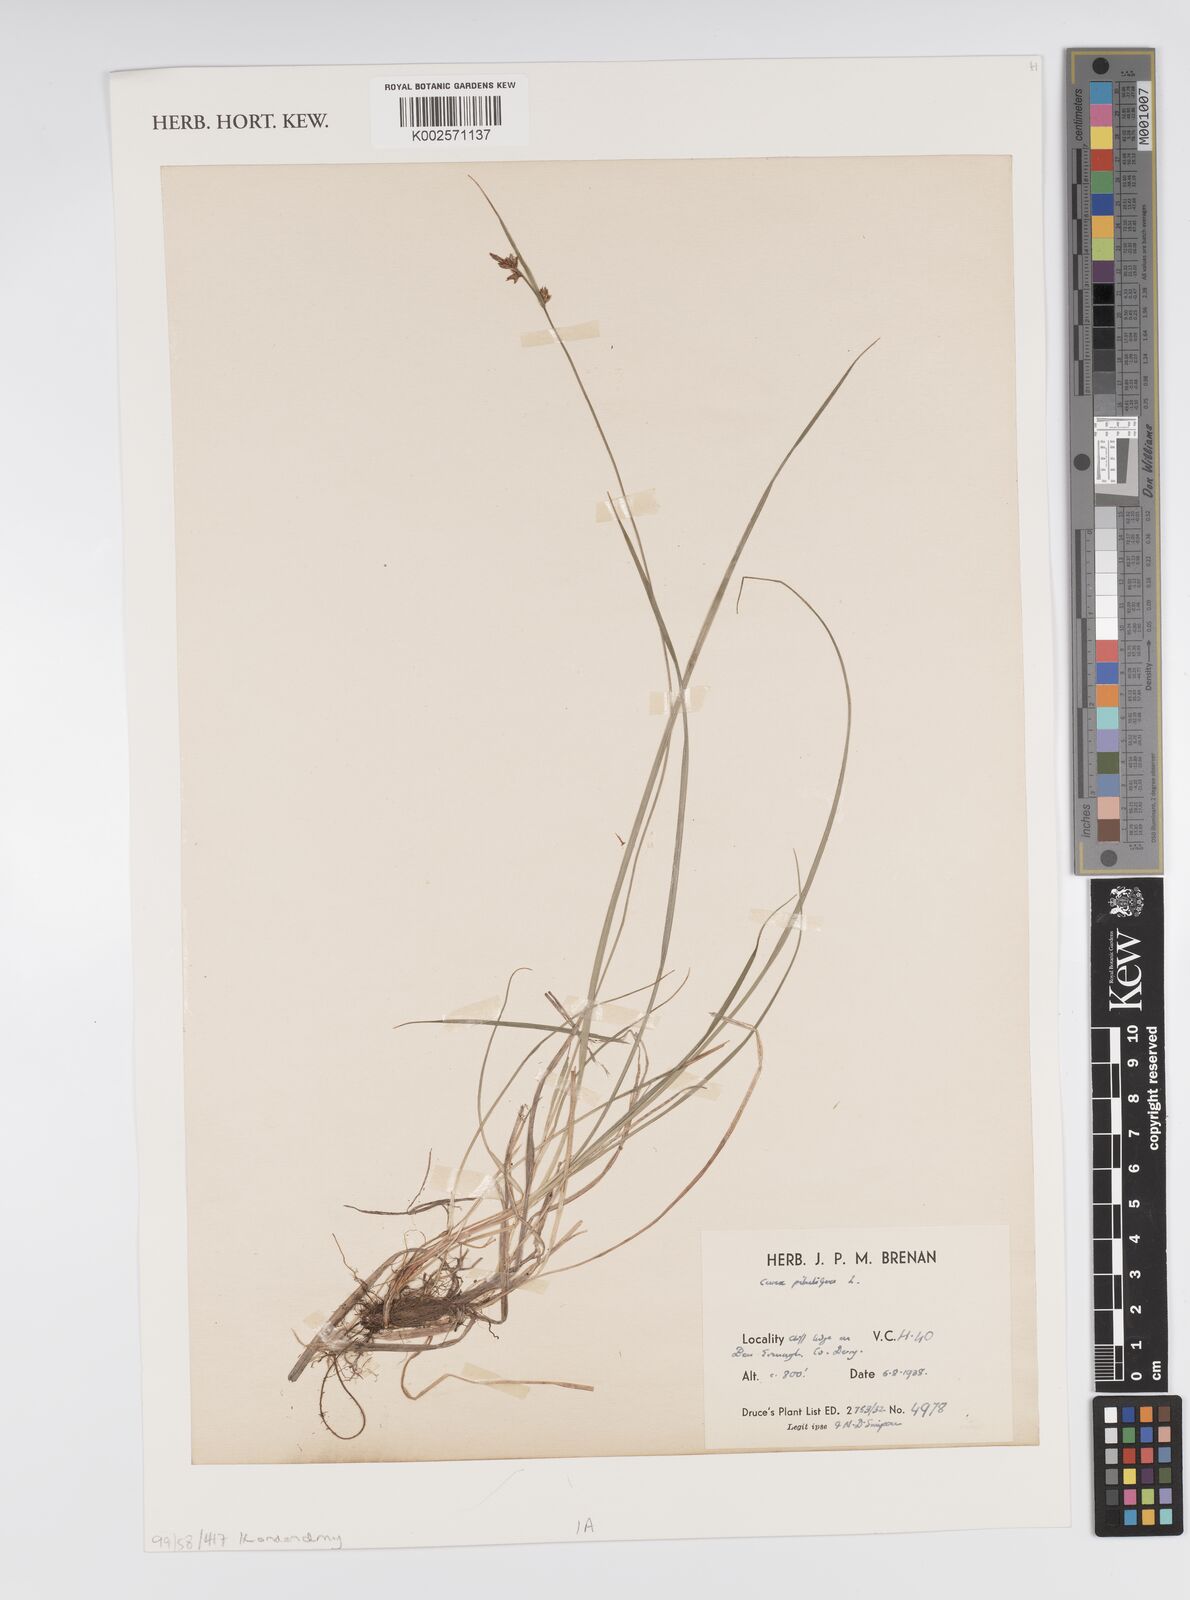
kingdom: Plantae
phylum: Tracheophyta
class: Liliopsida
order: Poales
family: Cyperaceae
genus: Carex
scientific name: Carex pilulifera
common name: Pill sedge
